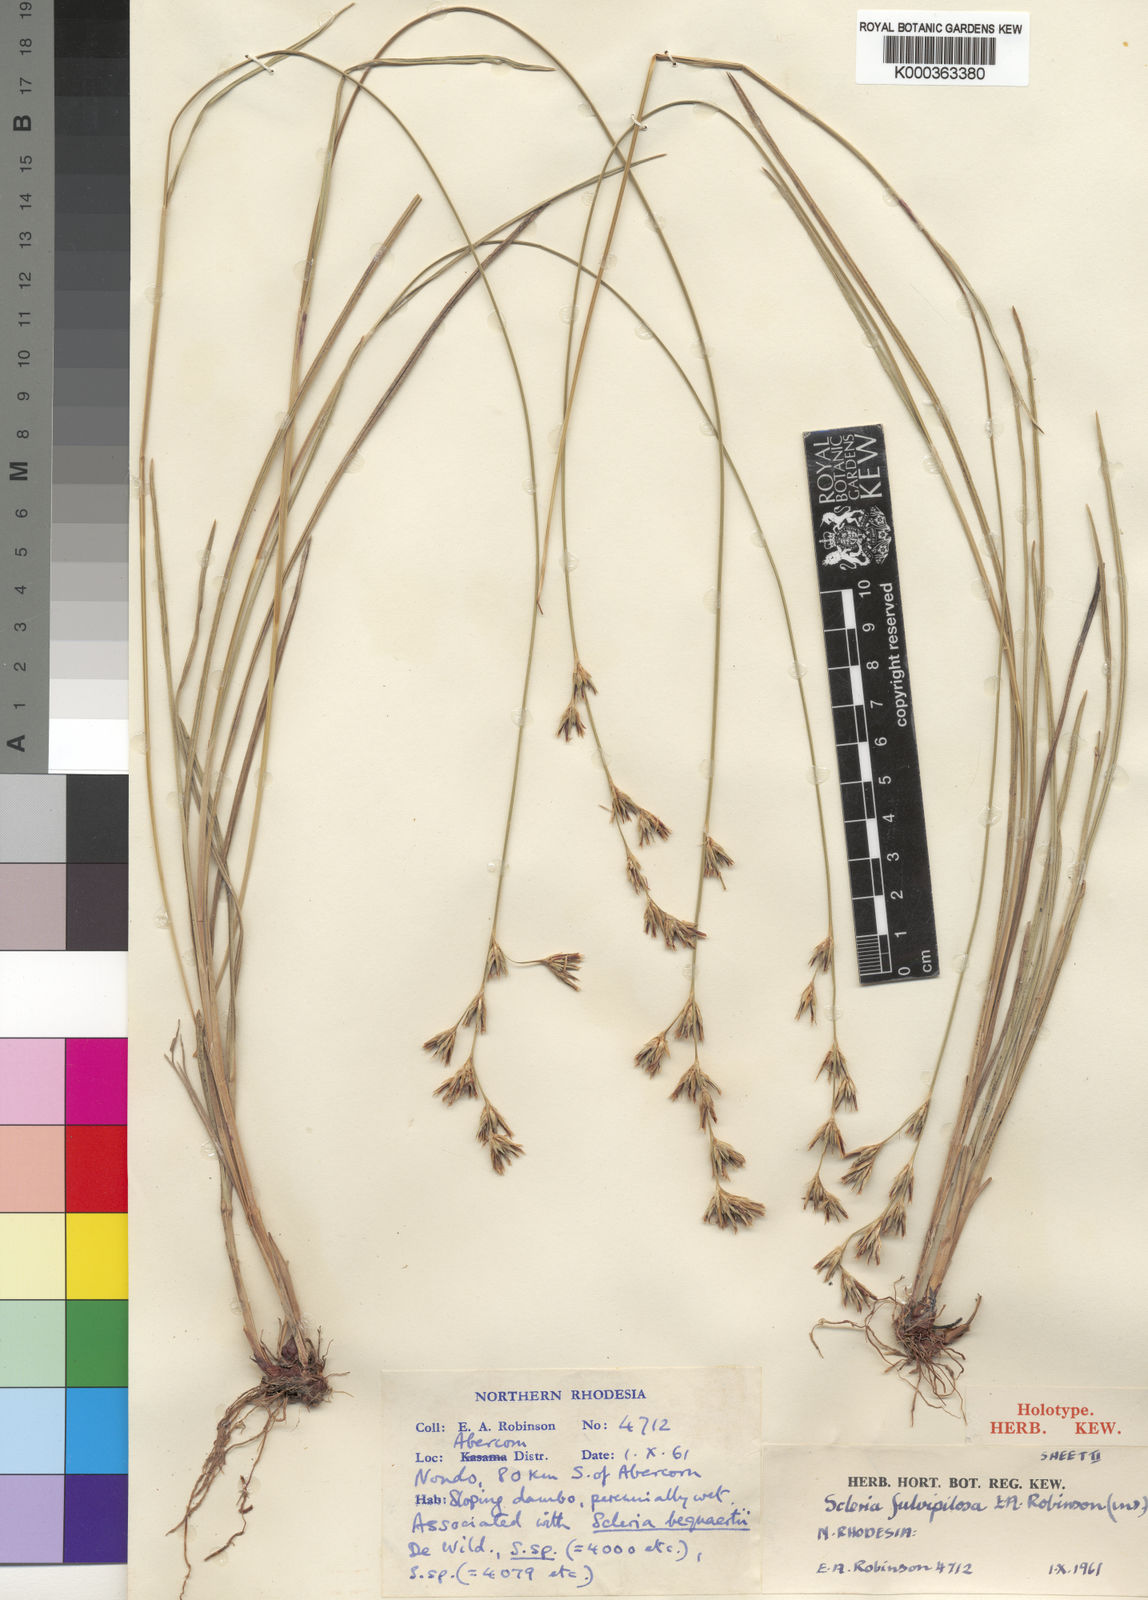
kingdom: Plantae
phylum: Tracheophyta
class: Liliopsida
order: Poales
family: Cyperaceae
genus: Scleria
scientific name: Scleria fulvipilosa
